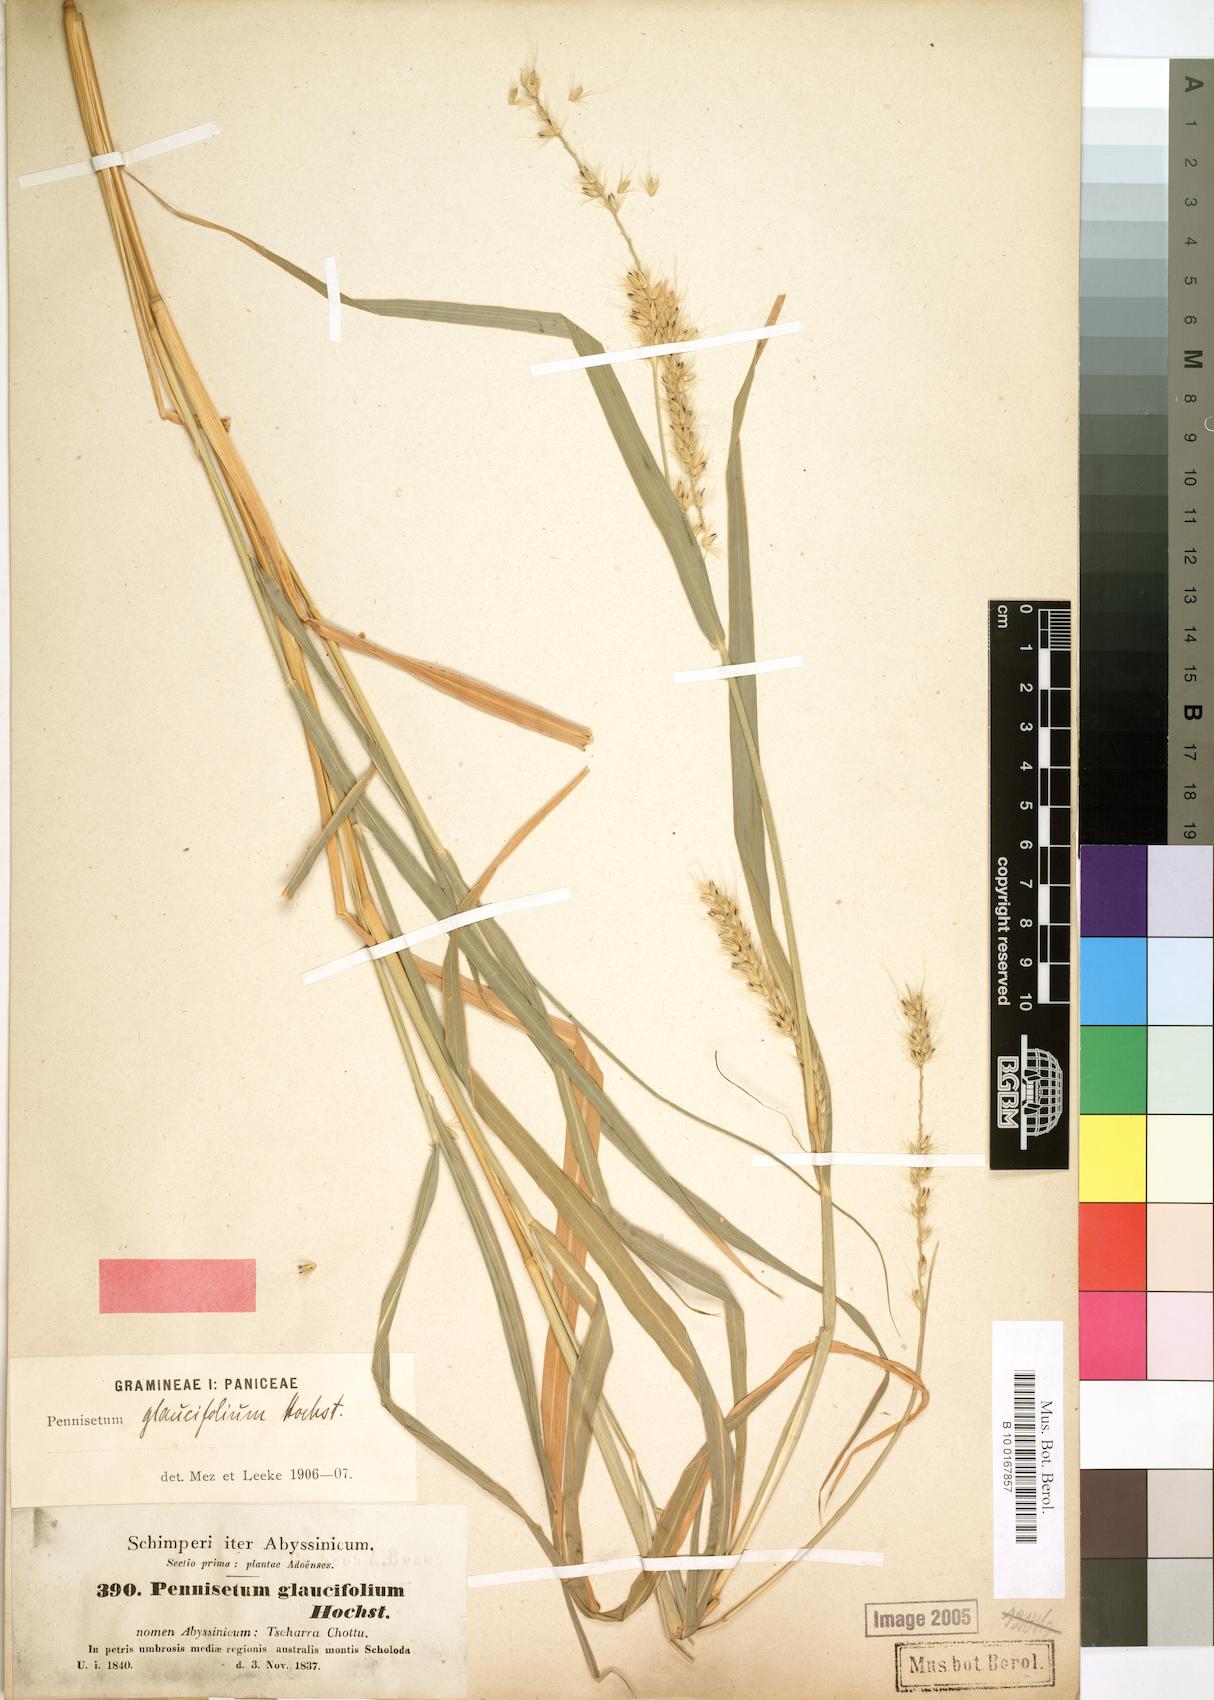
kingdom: Plantae
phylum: Tracheophyta
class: Liliopsida
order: Poales
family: Poaceae
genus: Cenchrus
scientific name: Cenchrus glaucifolius
